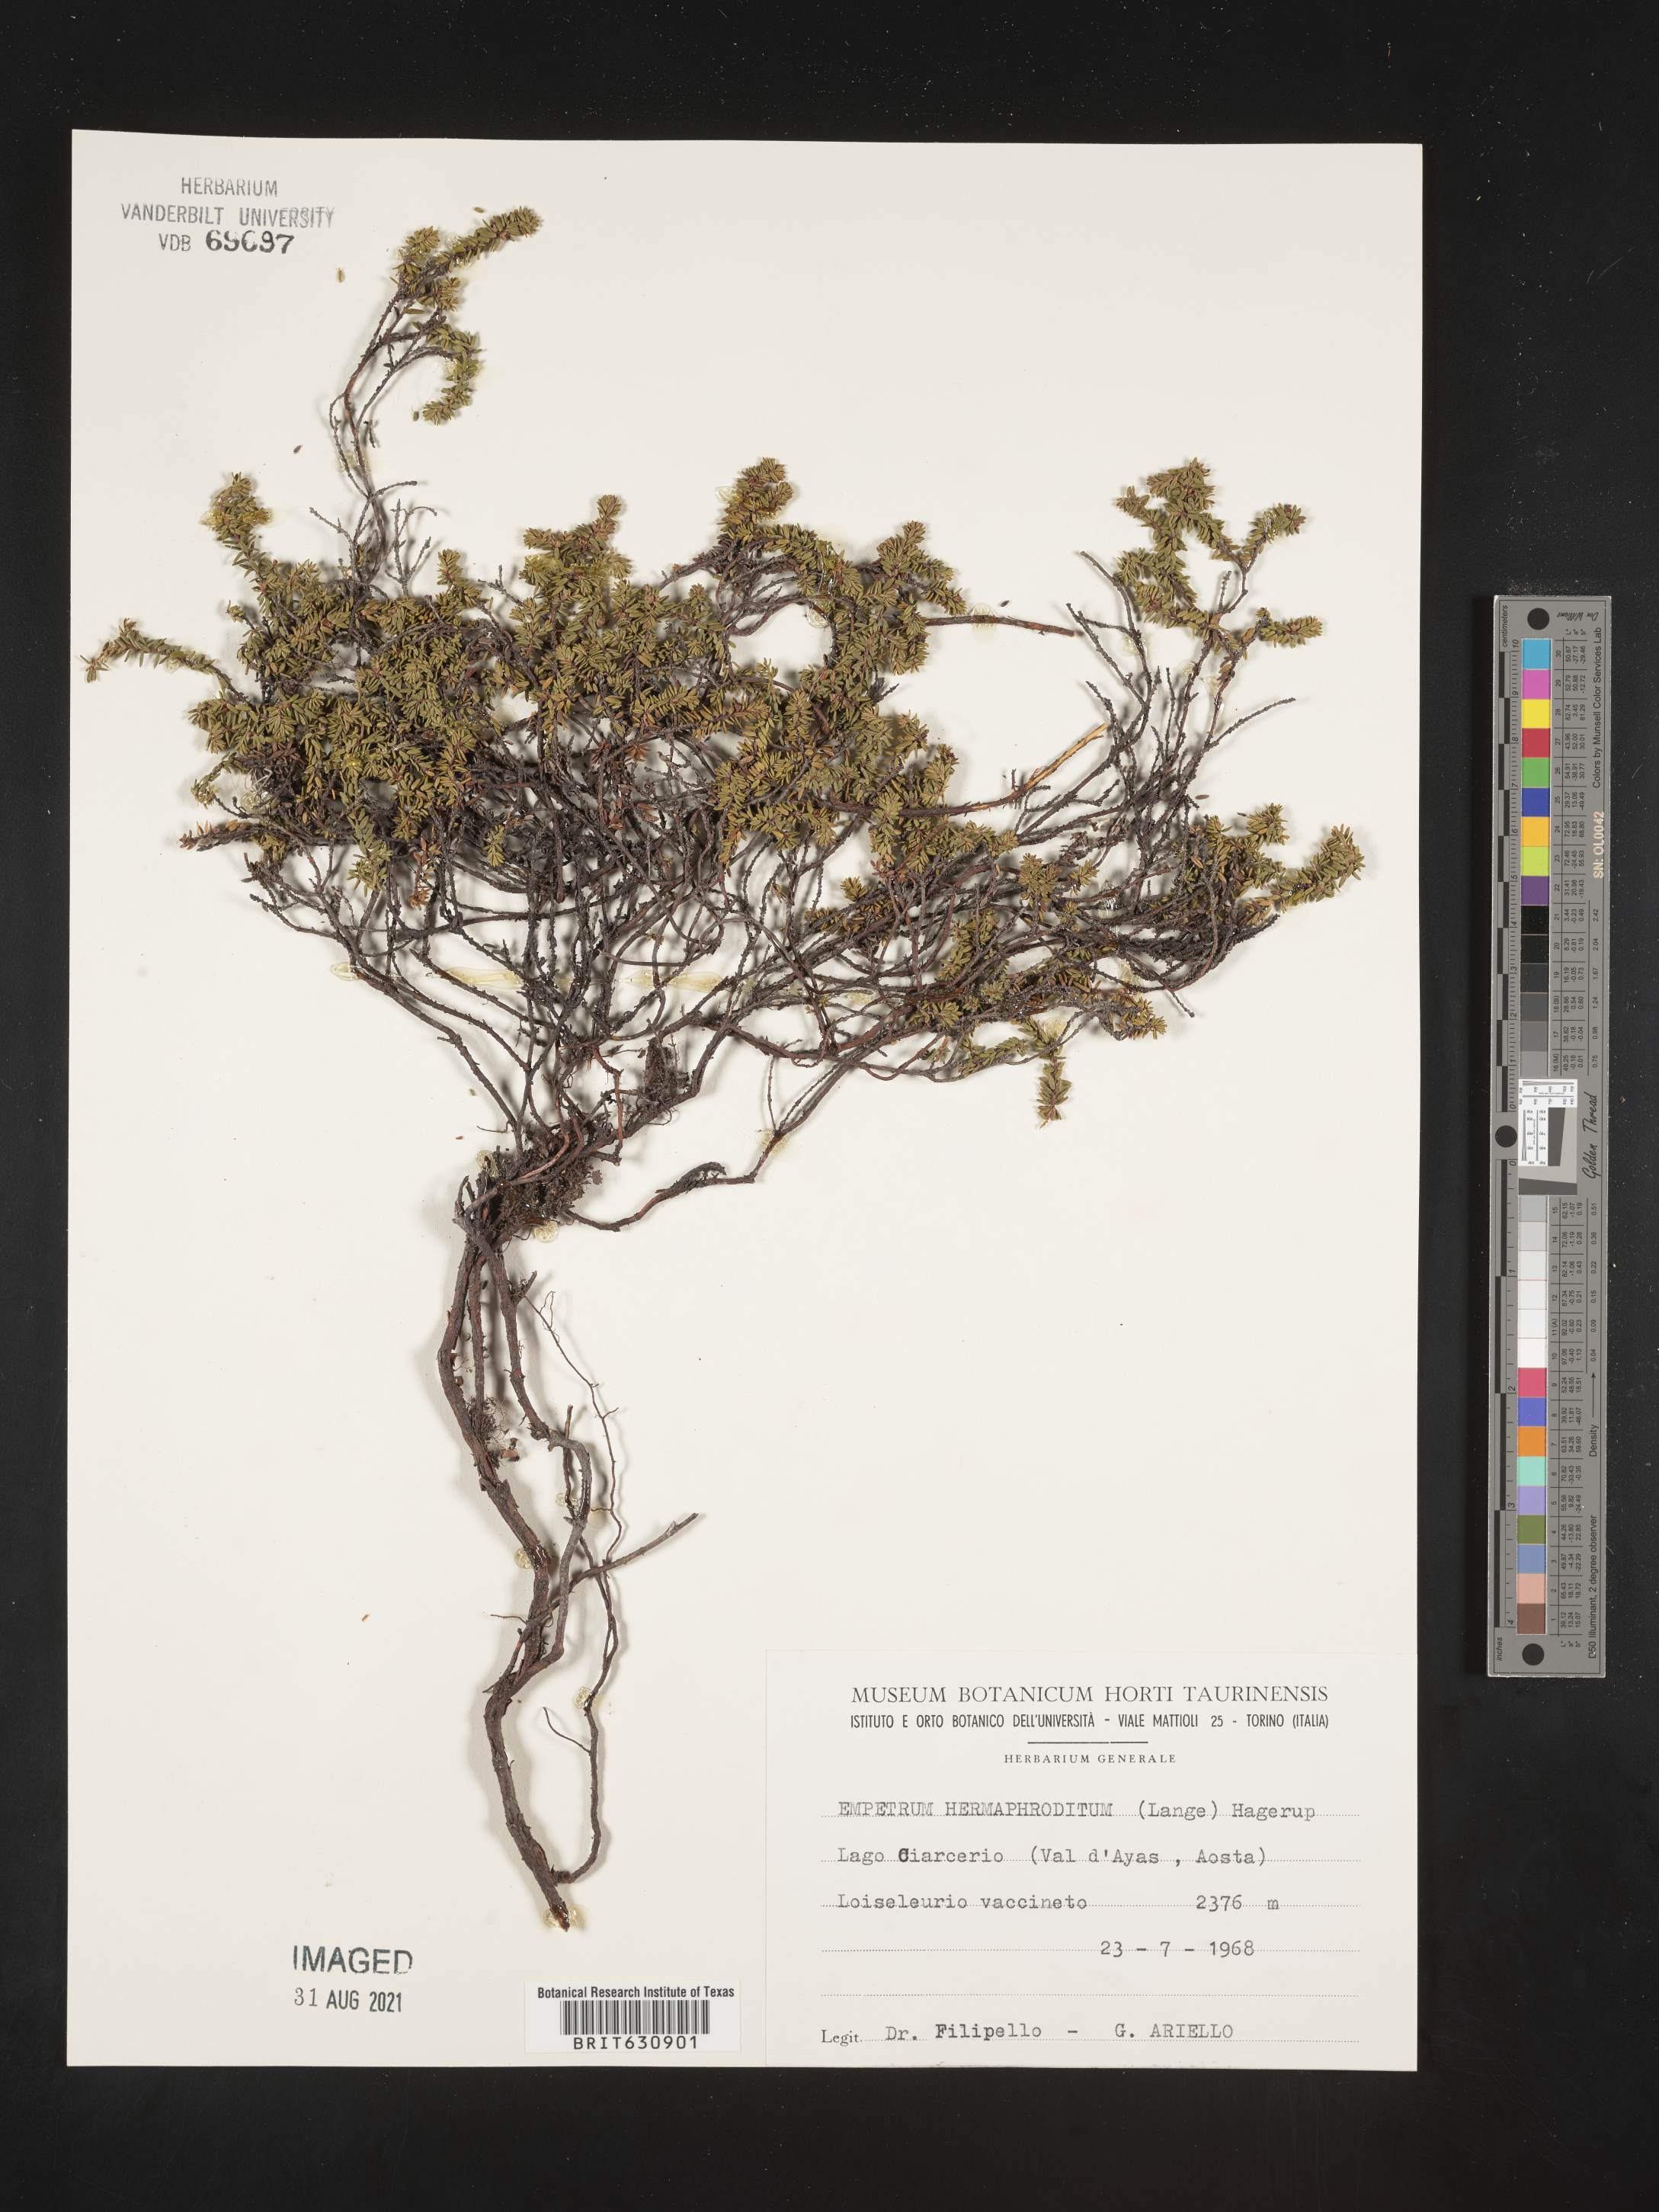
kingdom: Plantae
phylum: Tracheophyta
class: Magnoliopsida
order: Ericales
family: Ericaceae
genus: Empetrum
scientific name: Empetrum
